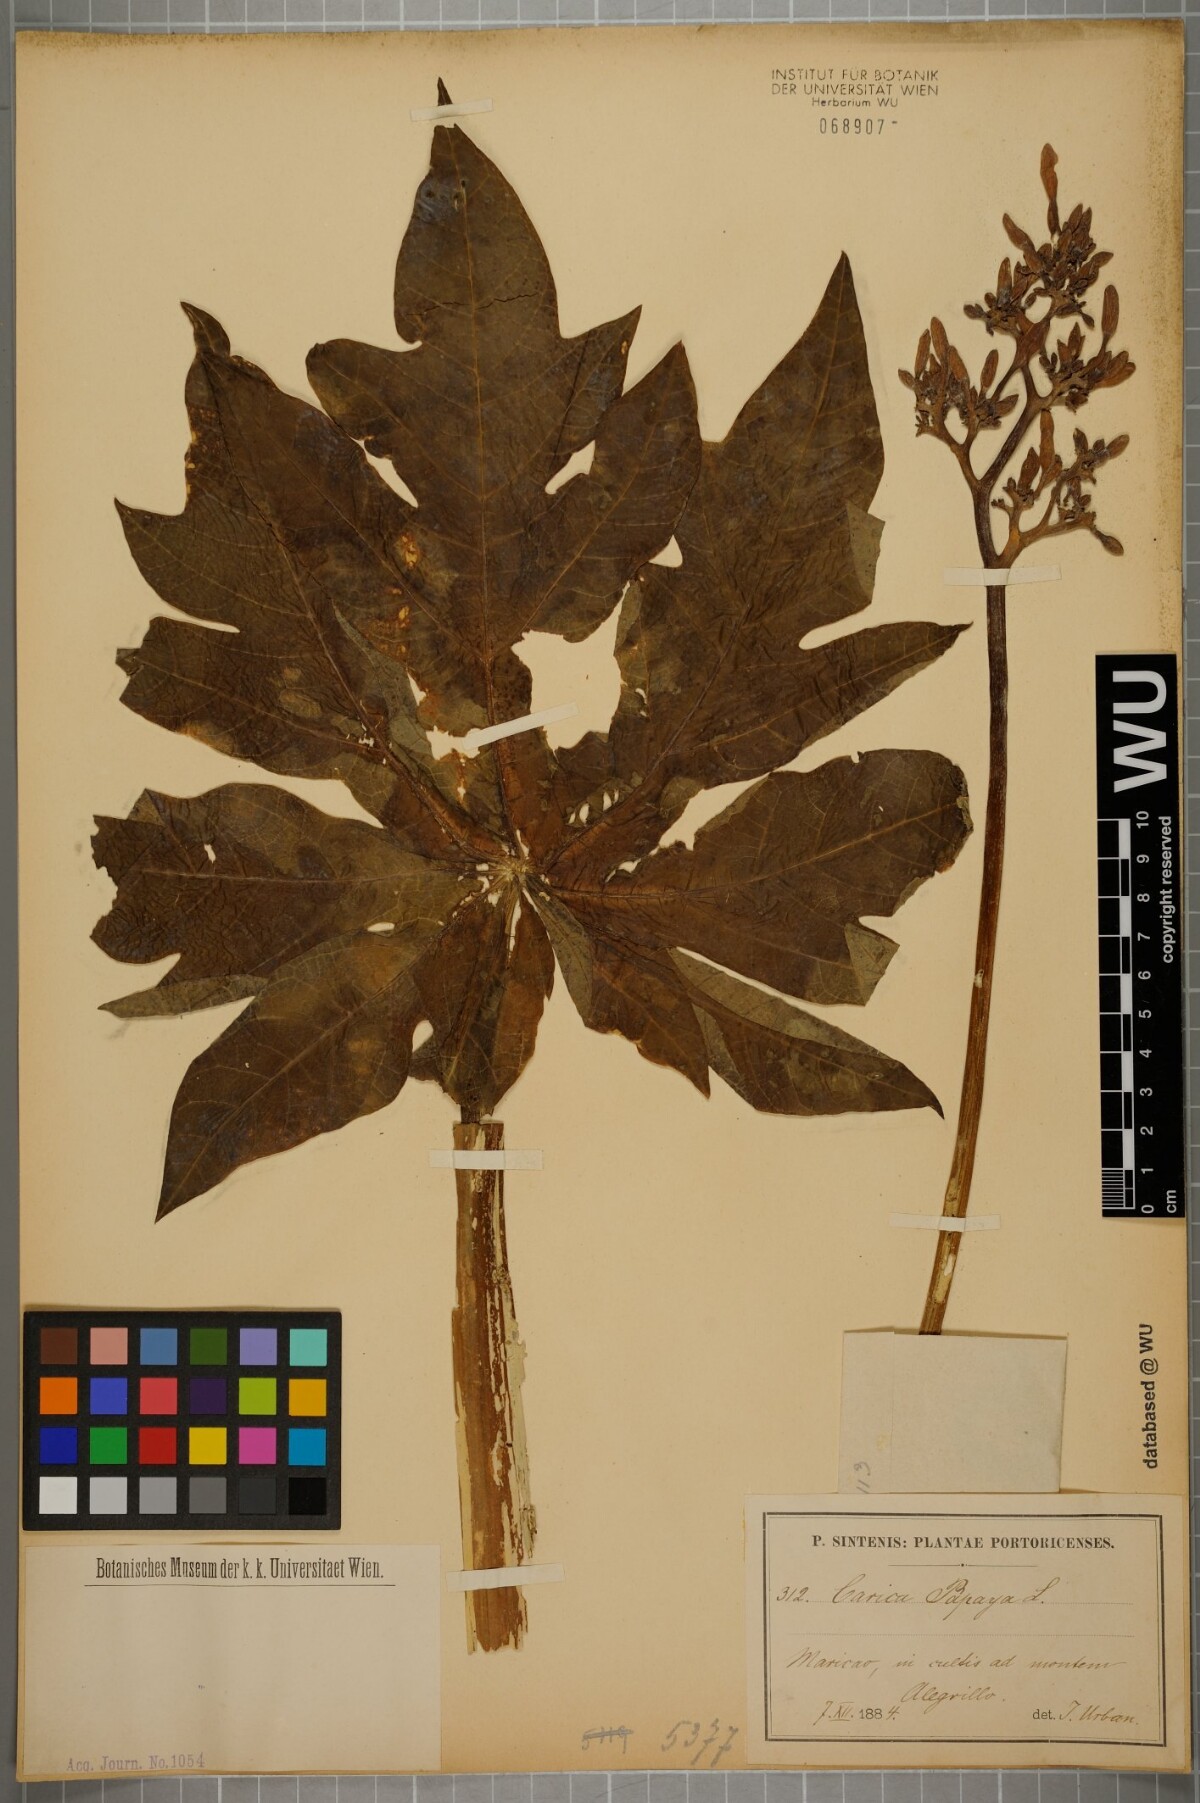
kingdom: Plantae
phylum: Tracheophyta
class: Magnoliopsida
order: Brassicales
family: Caricaceae
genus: Carica
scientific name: Carica papaya
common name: Papaya
